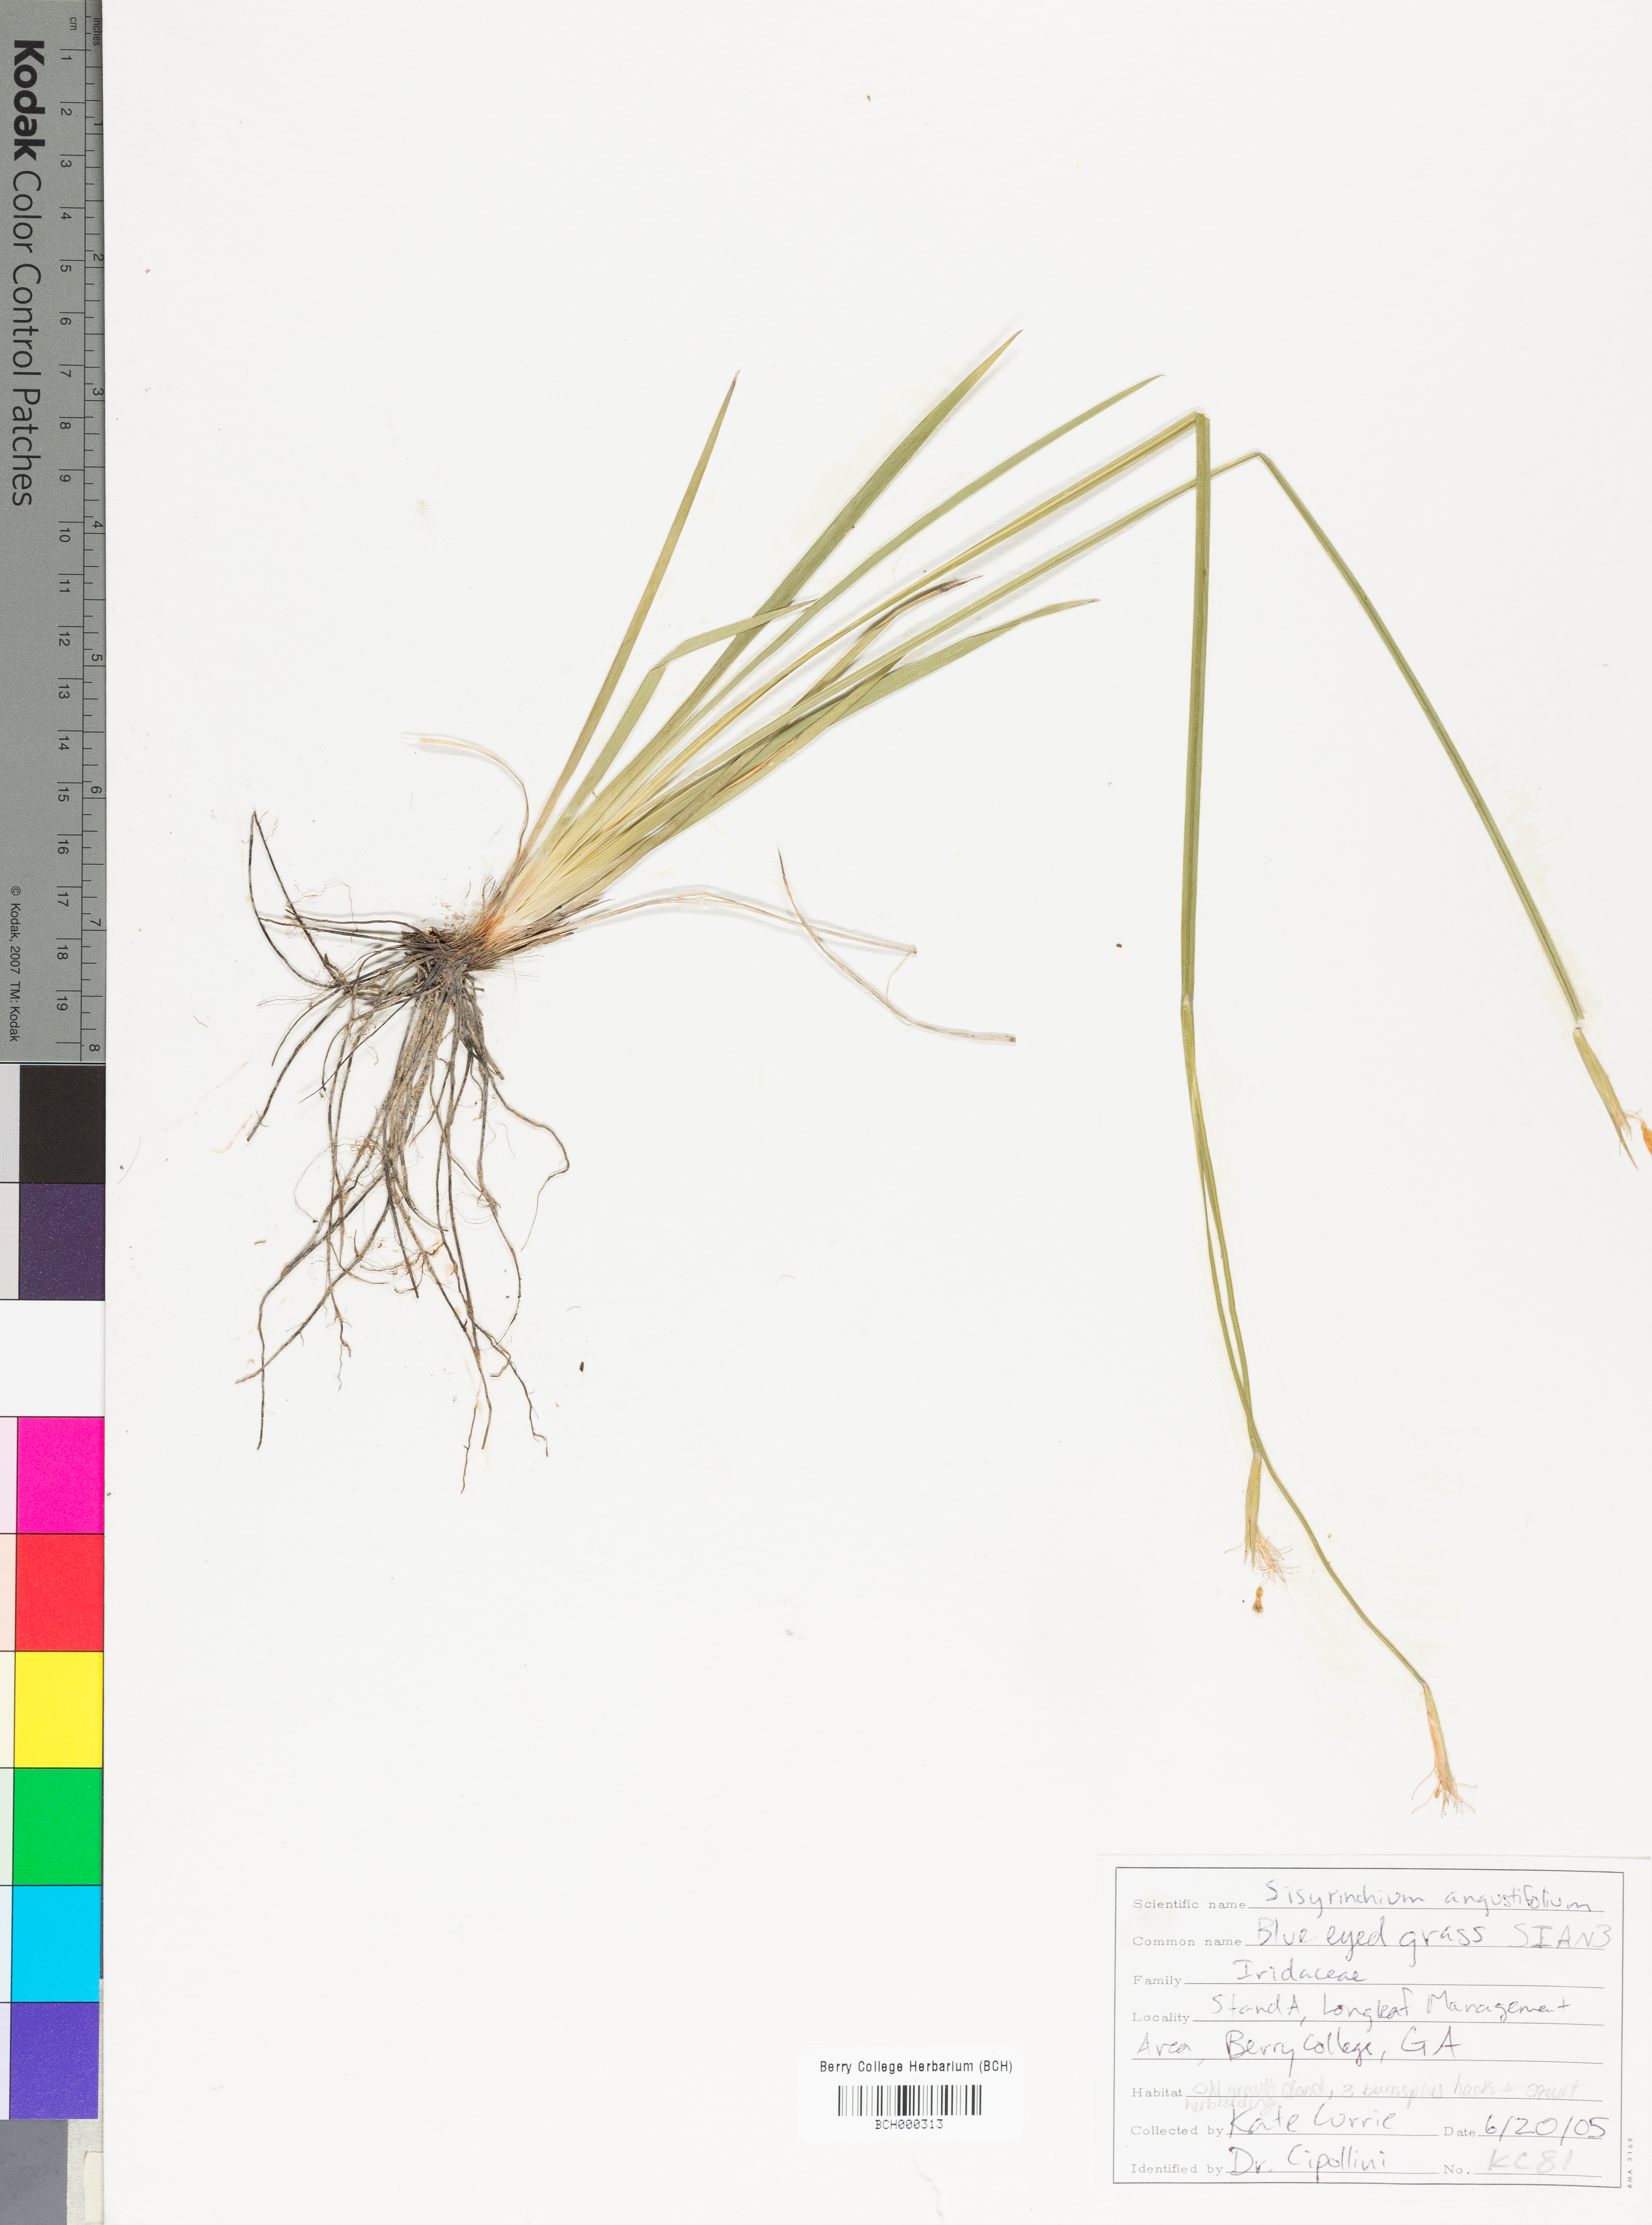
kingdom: Plantae
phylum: Tracheophyta
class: Liliopsida
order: Asparagales
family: Iridaceae
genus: Sisyrinchium
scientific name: Sisyrinchium angustifolium
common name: Narrow-leaf blue-eyed-grass
